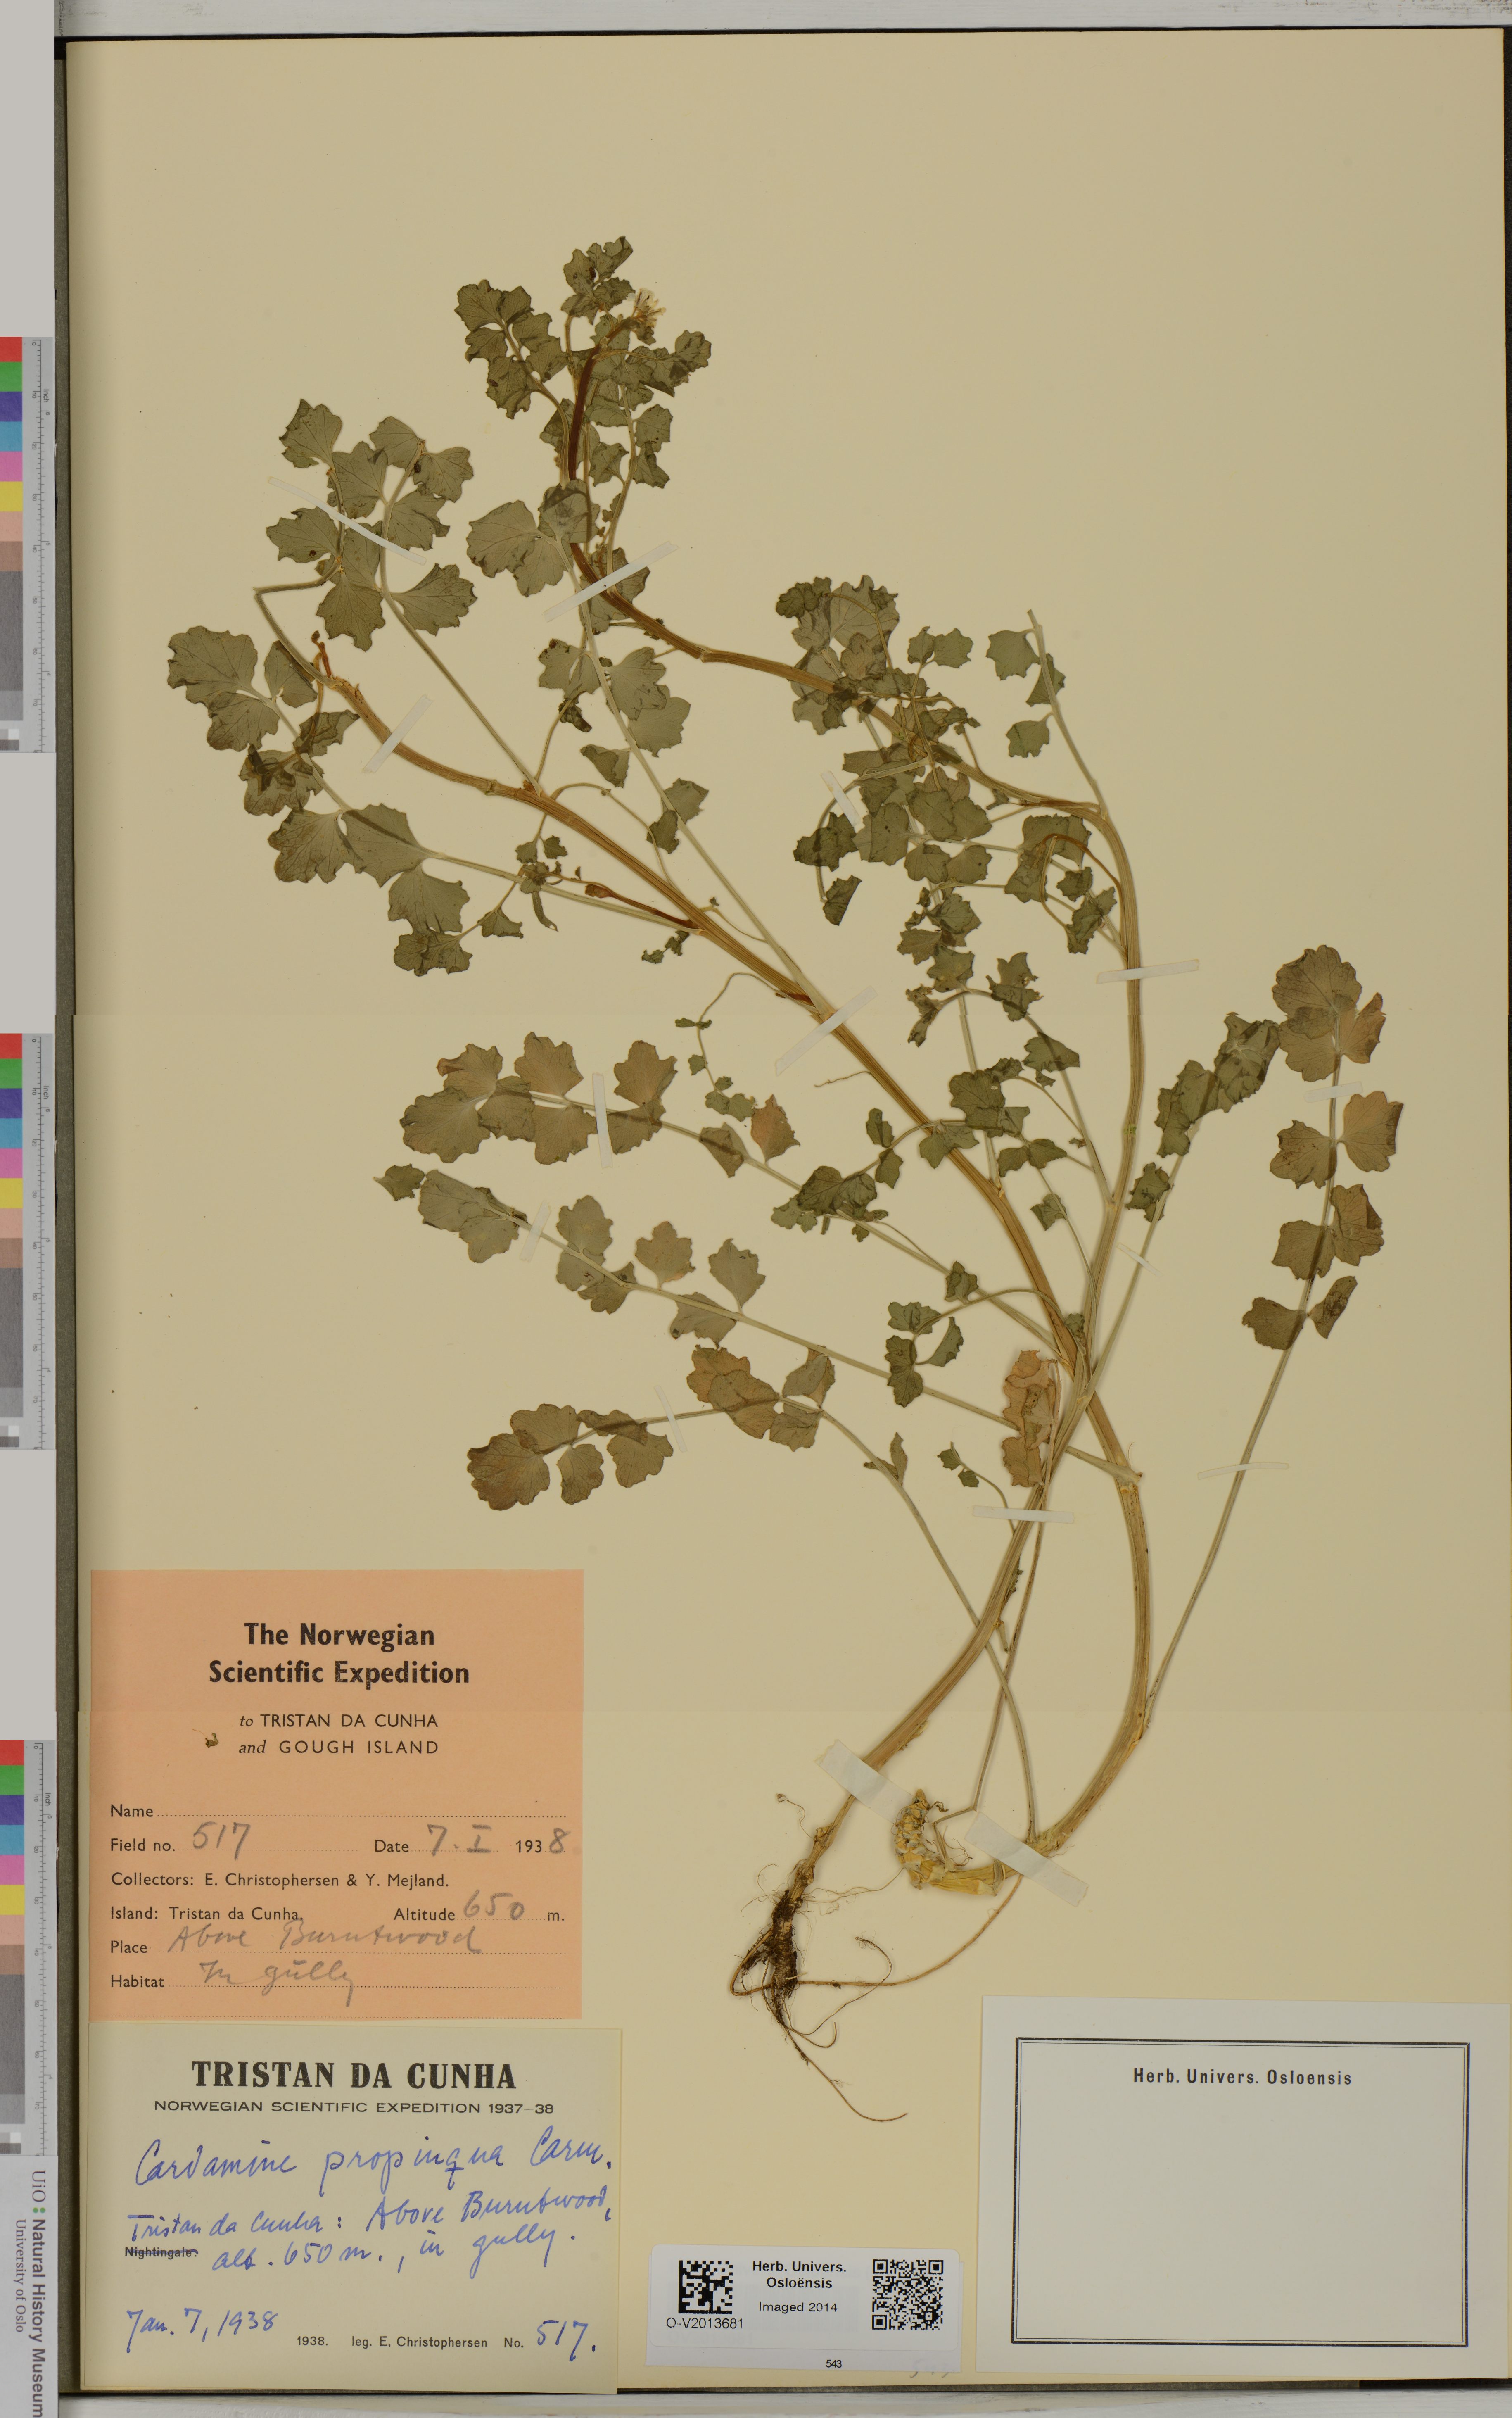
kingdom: Plantae
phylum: Tracheophyta
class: Magnoliopsida
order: Brassicales
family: Brassicaceae
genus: Cardamine
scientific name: Cardamine glacialis
